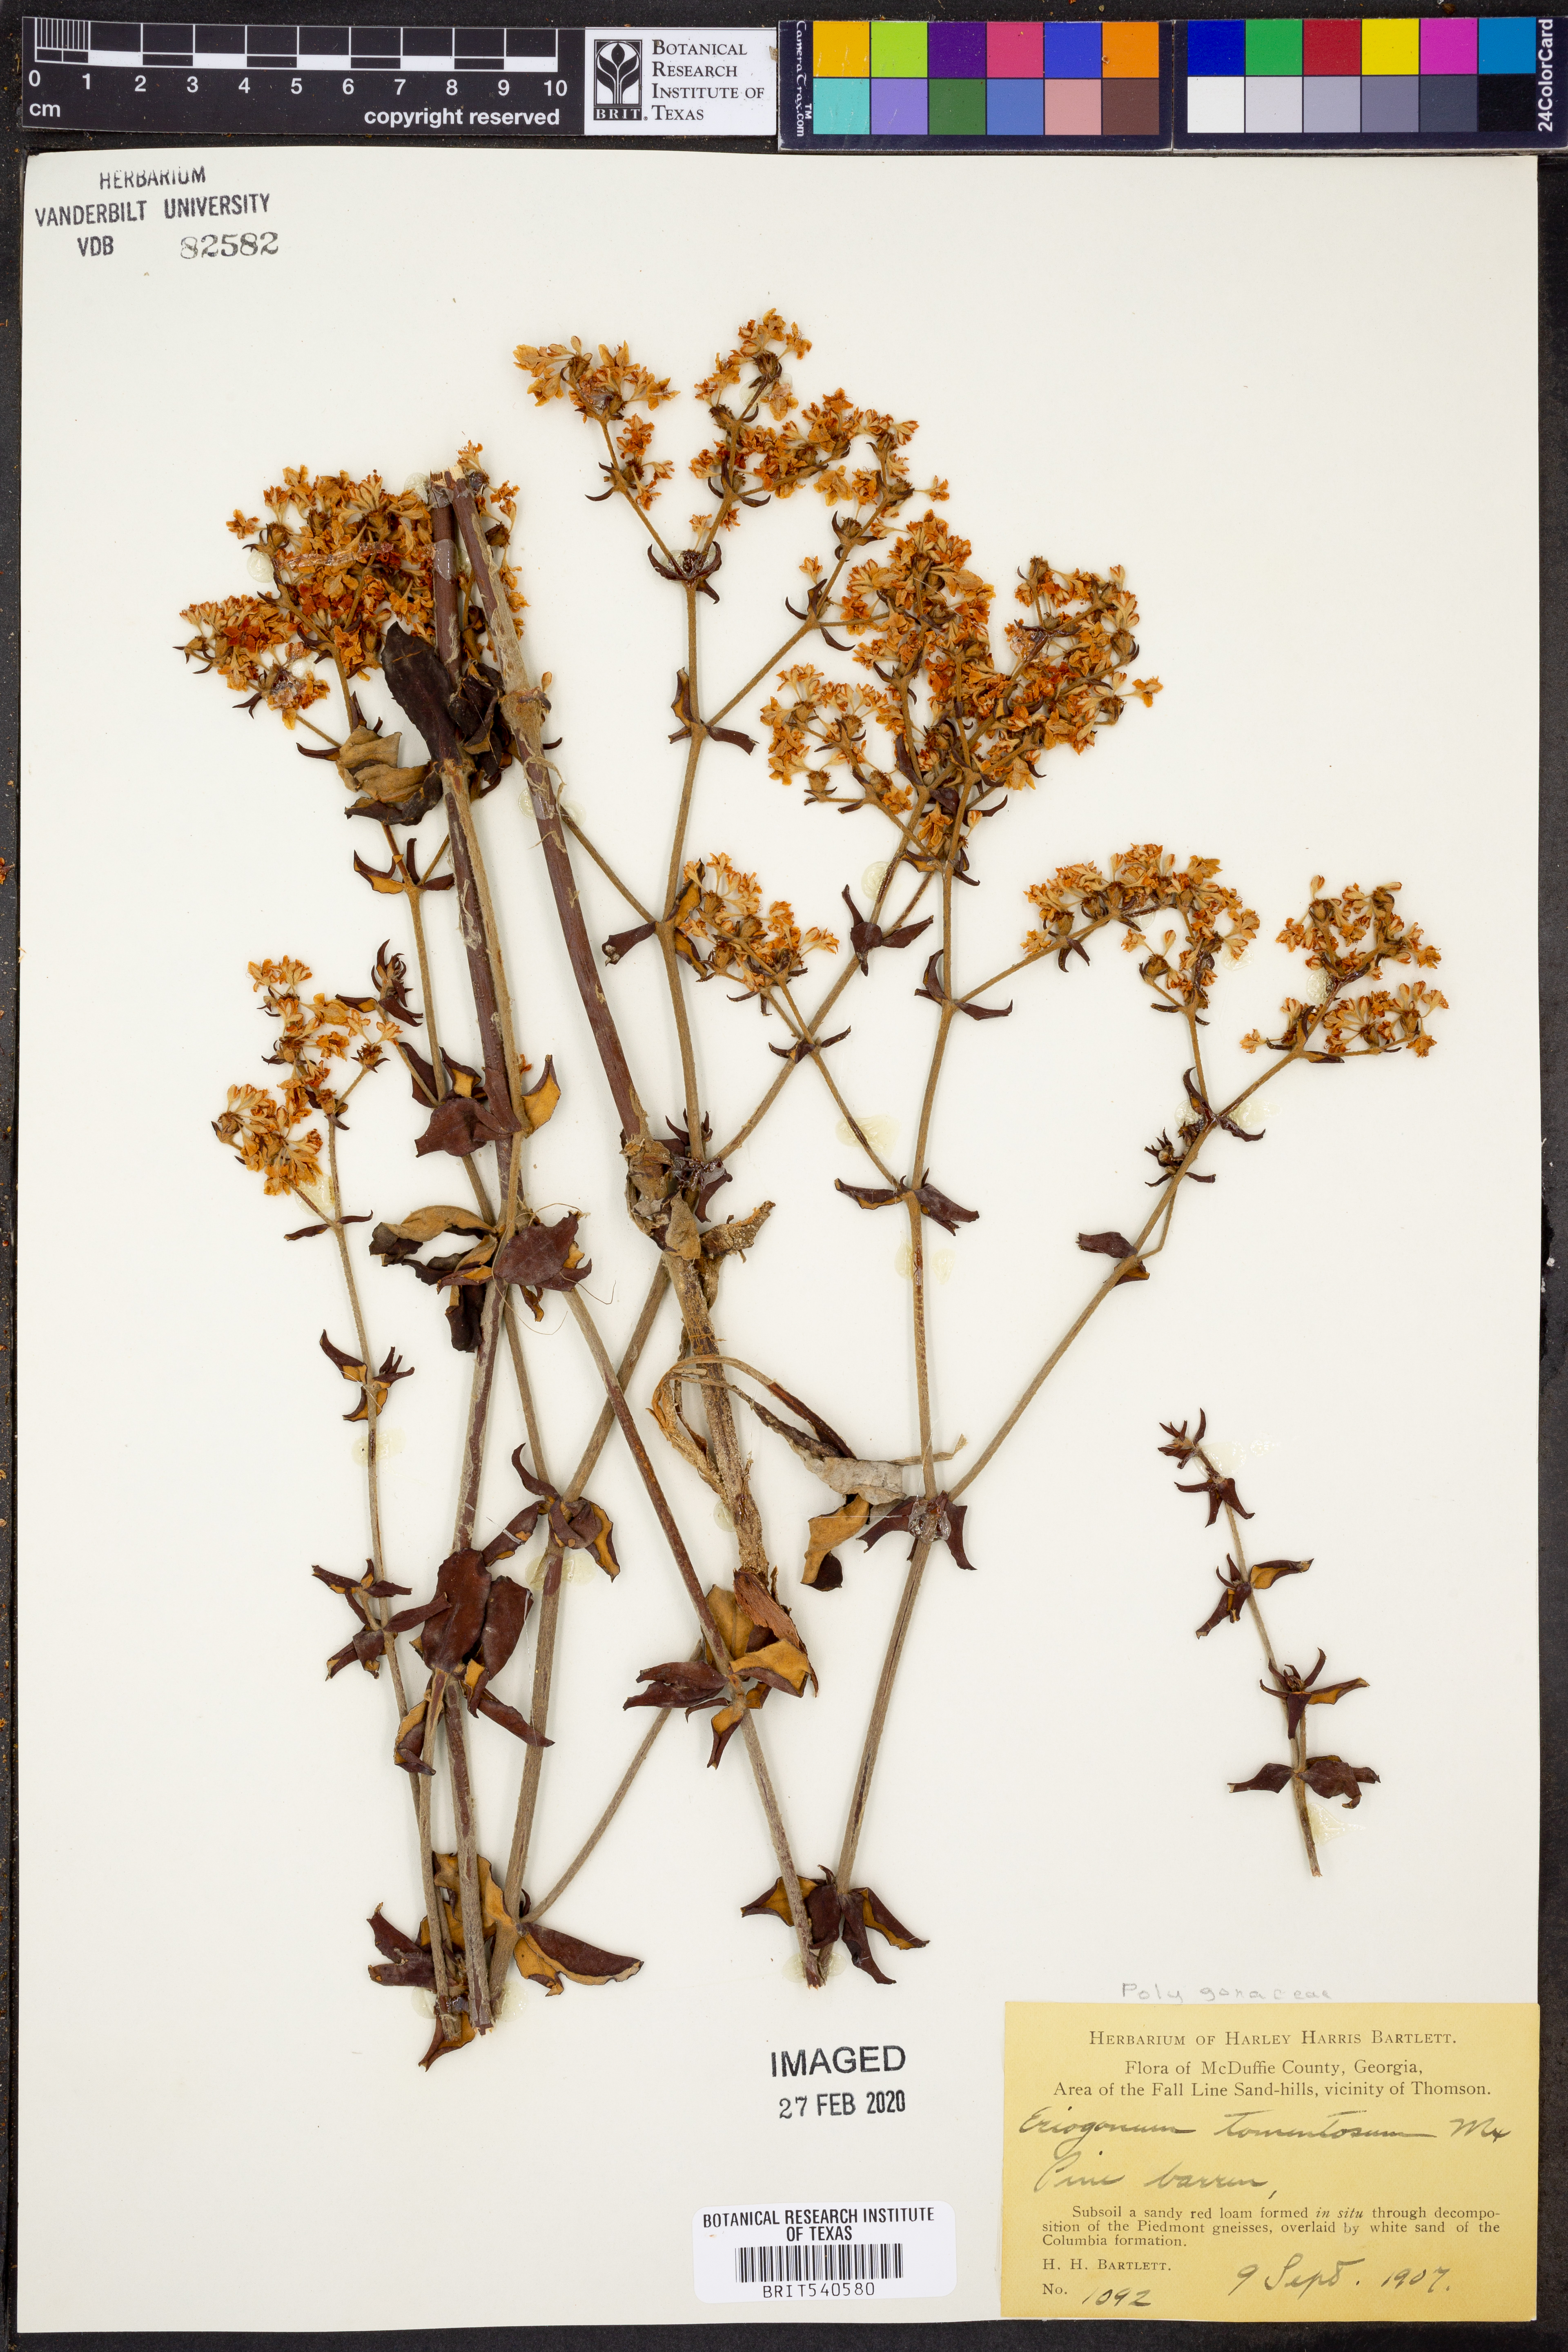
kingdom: Plantae
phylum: Tracheophyta
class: Magnoliopsida
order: Caryophyllales
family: Polygonaceae
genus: Eriogonum
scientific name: Eriogonum tomentosum
